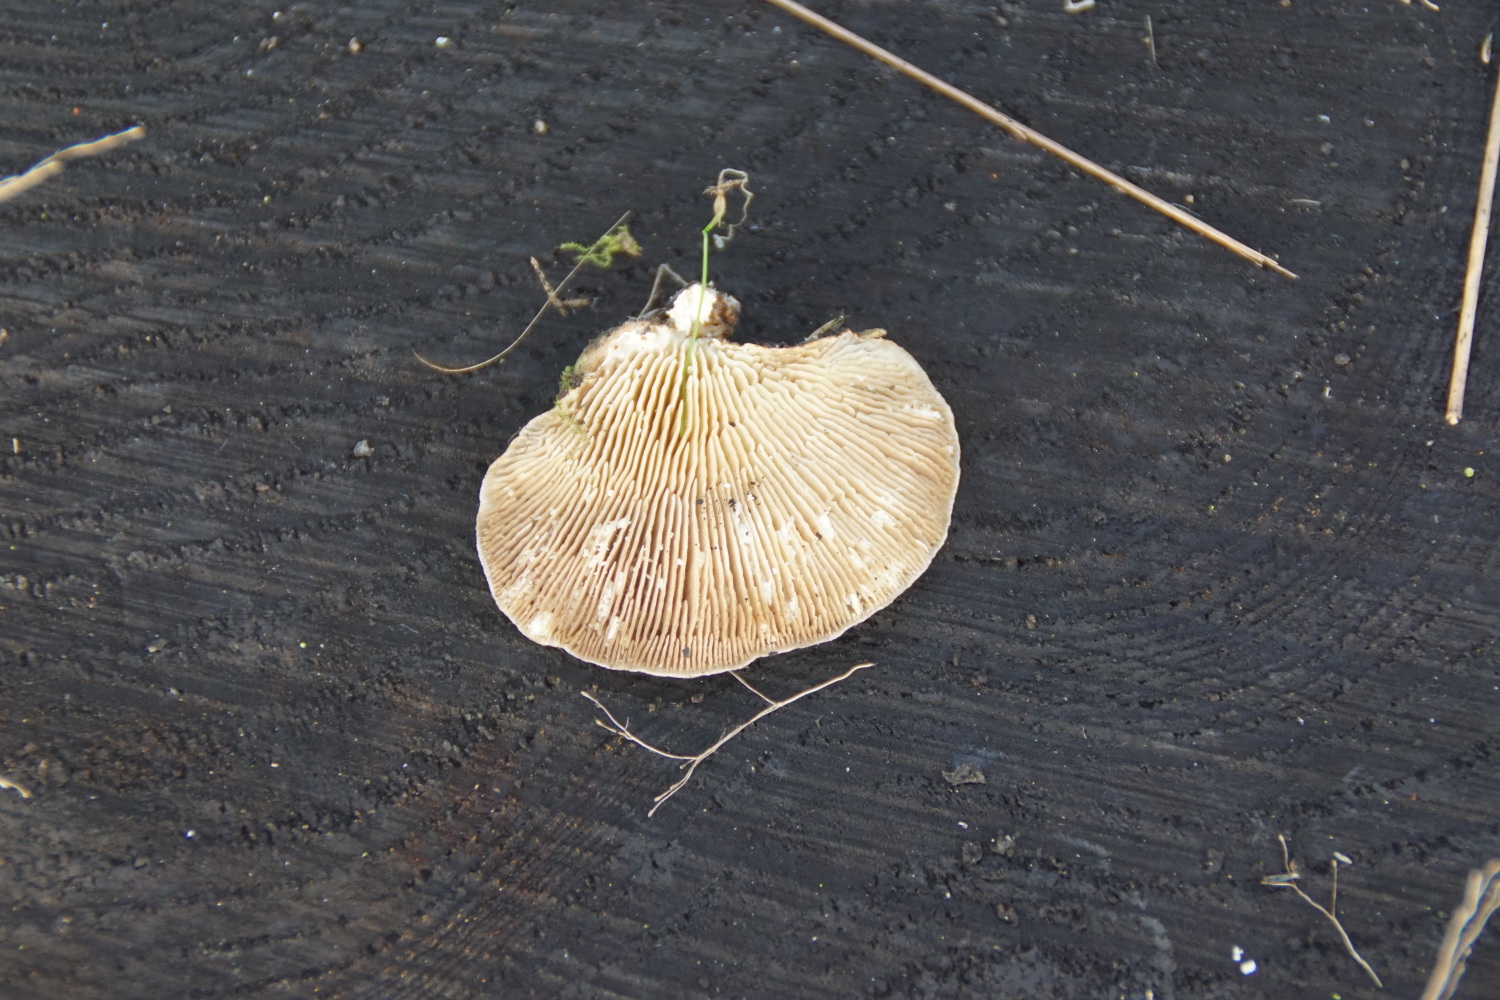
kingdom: Fungi
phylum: Basidiomycota
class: Agaricomycetes
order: Polyporales
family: Polyporaceae
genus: Lenzites
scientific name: Lenzites betulinus
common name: birke-læderporesvamp
